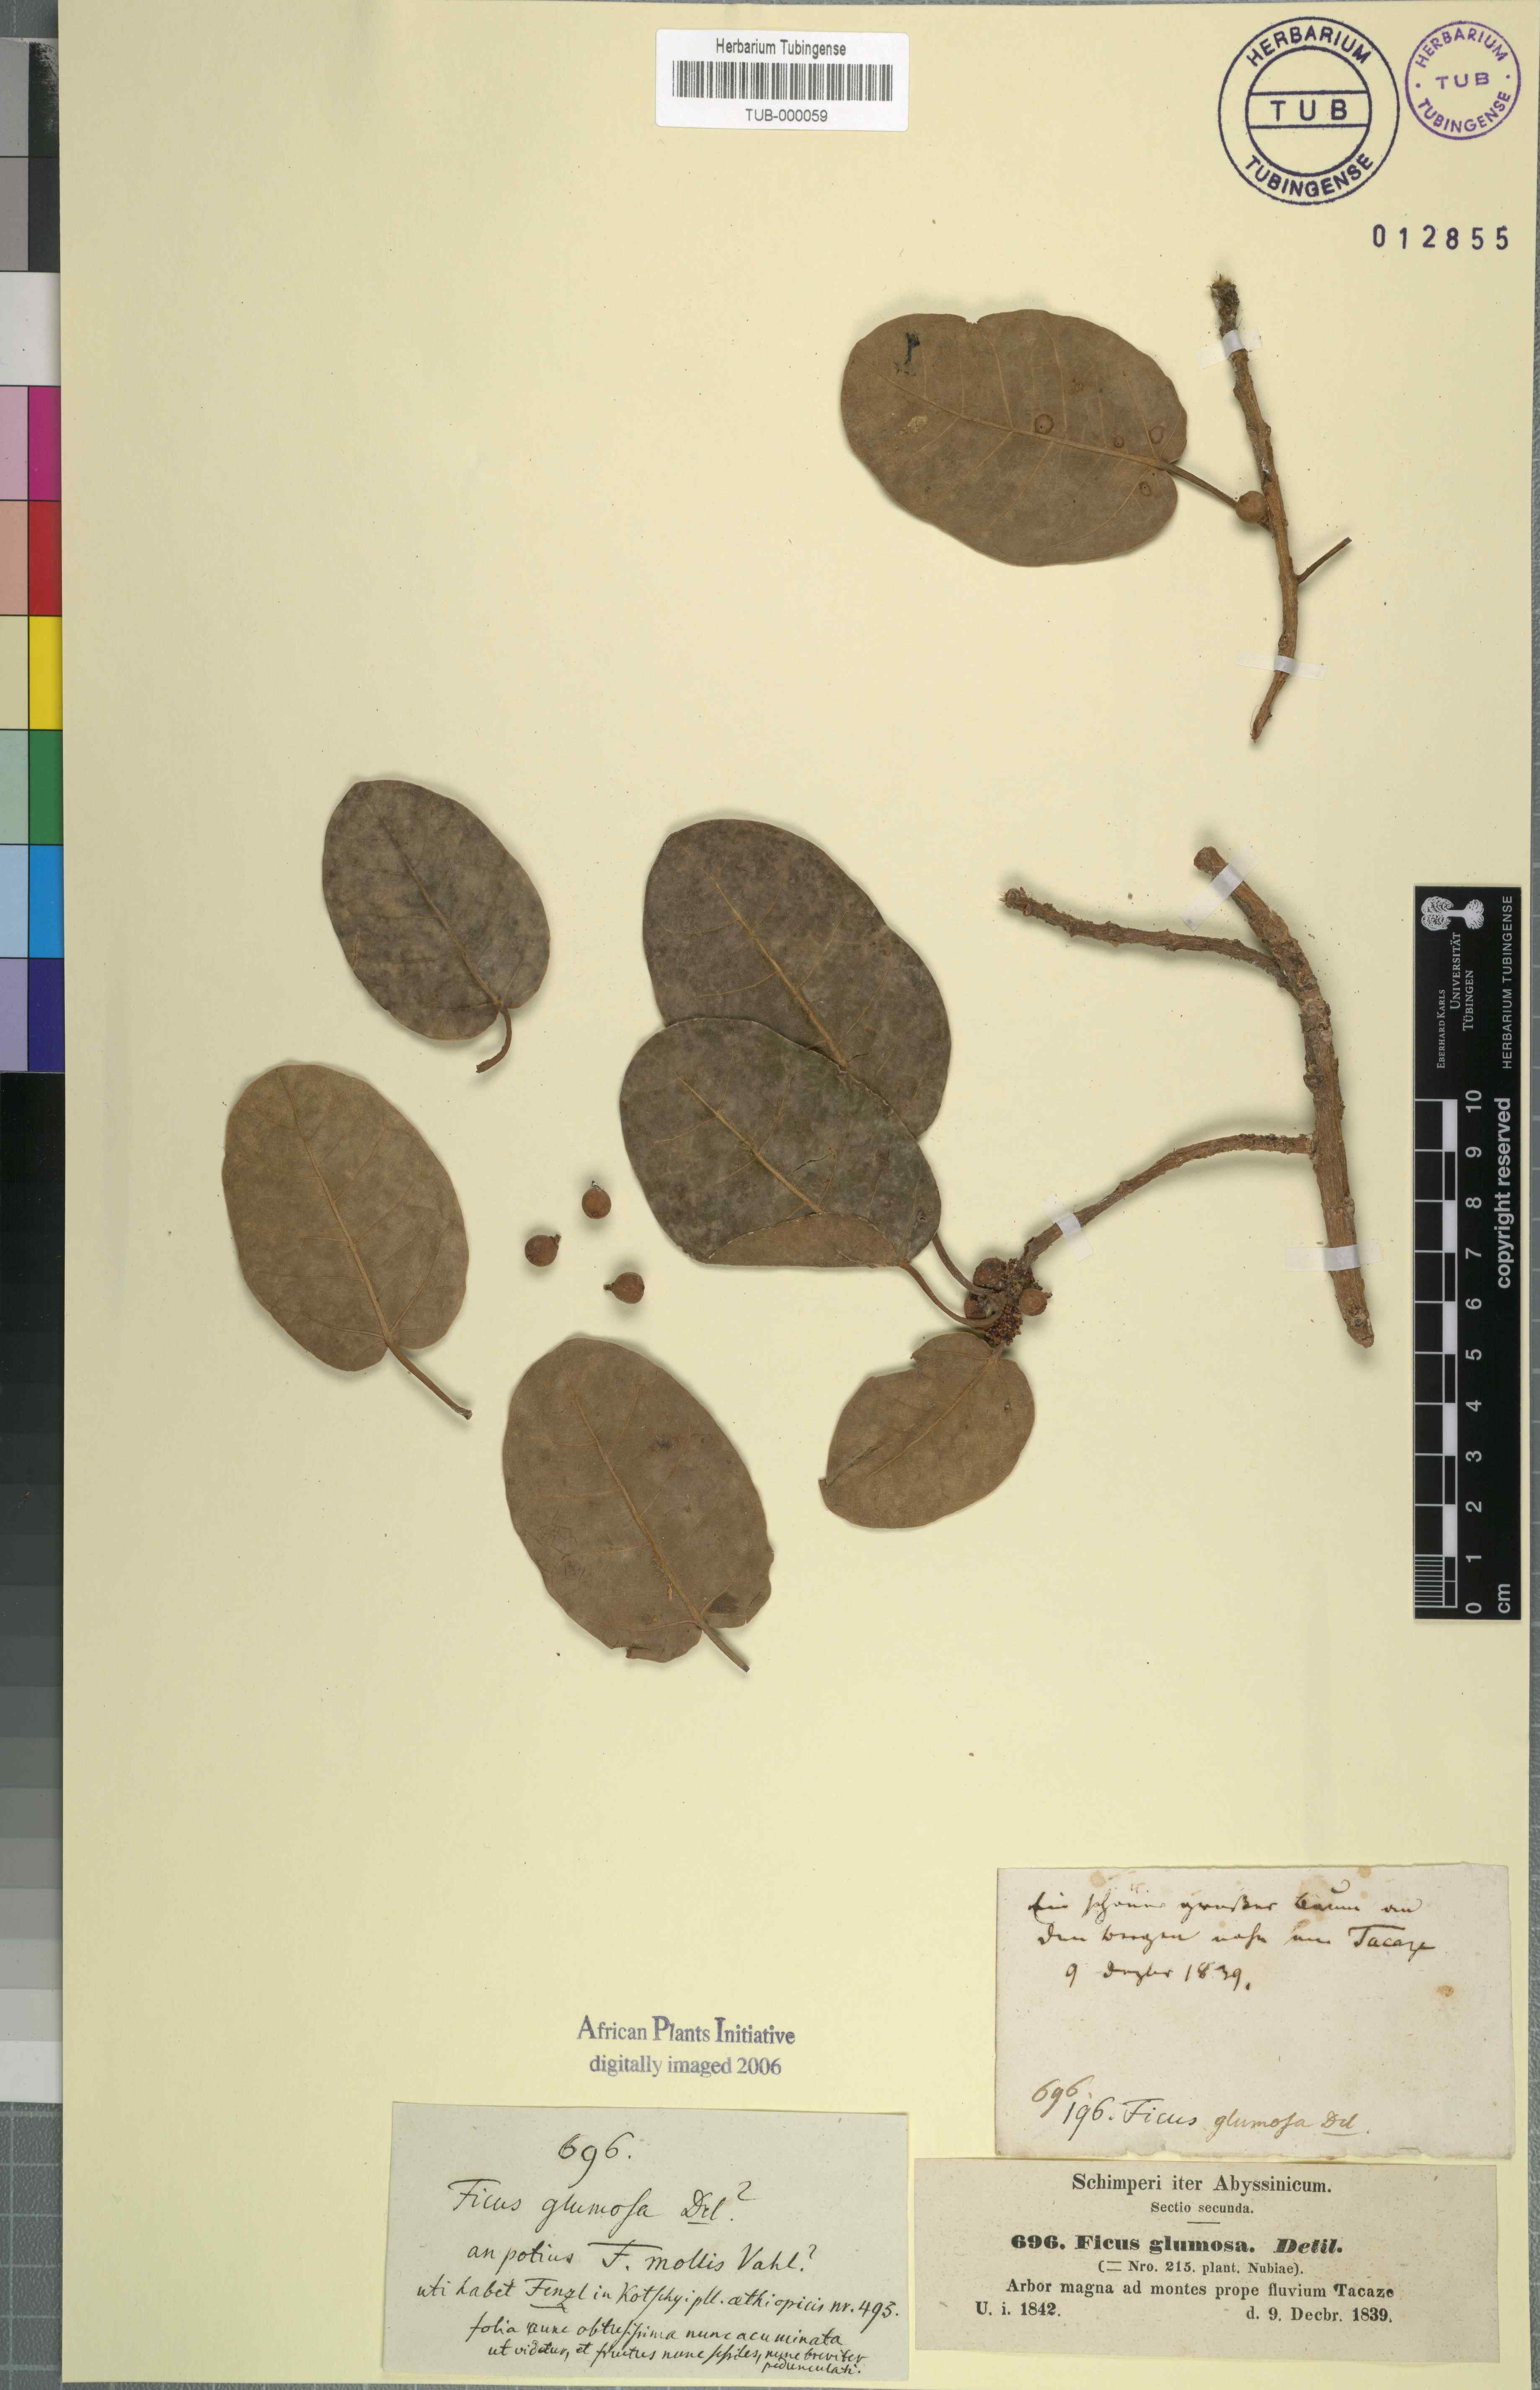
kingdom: Plantae
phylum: Tracheophyta
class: Magnoliopsida
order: Rosales
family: Moraceae
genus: Ficus
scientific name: Ficus glumosa
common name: Hairy rock fig
